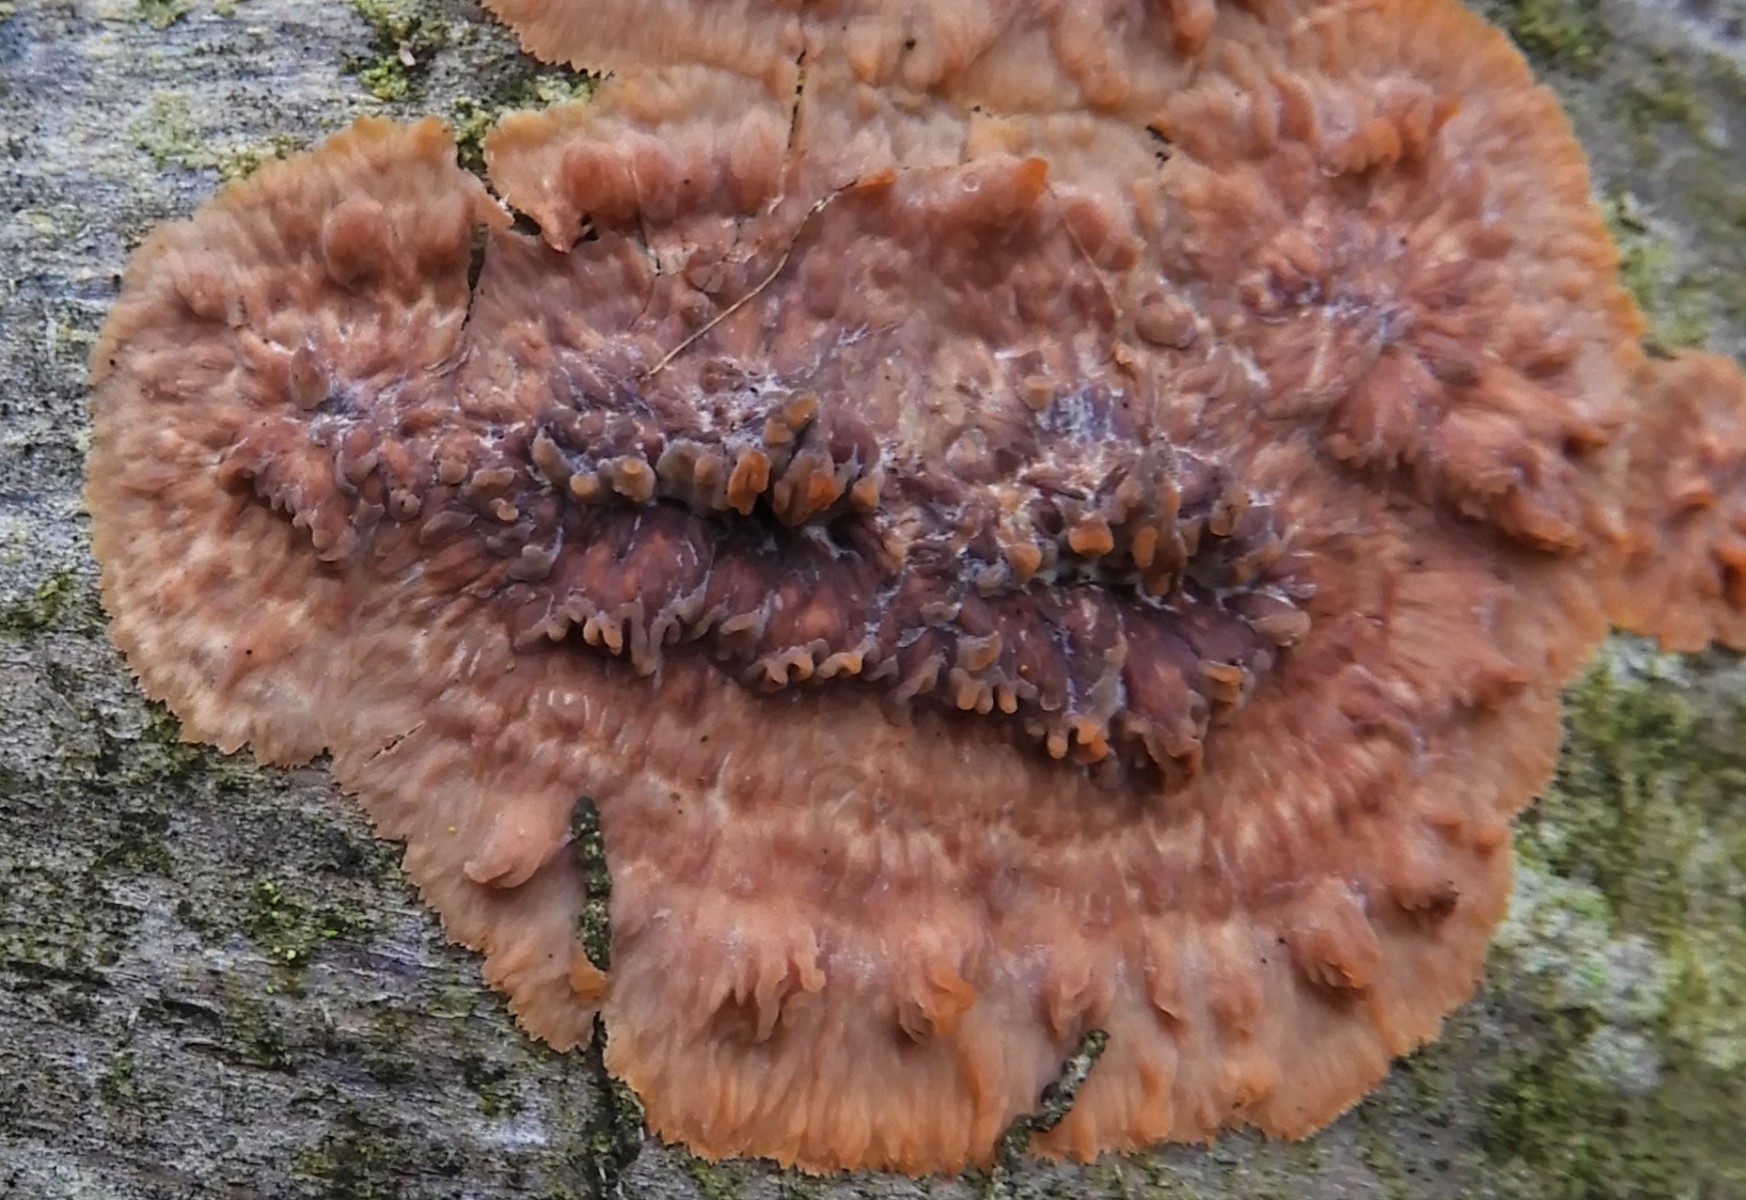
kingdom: Fungi
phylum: Basidiomycota
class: Agaricomycetes
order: Polyporales
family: Meruliaceae
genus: Phlebia
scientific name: Phlebia radiata
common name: stråle-åresvamp
